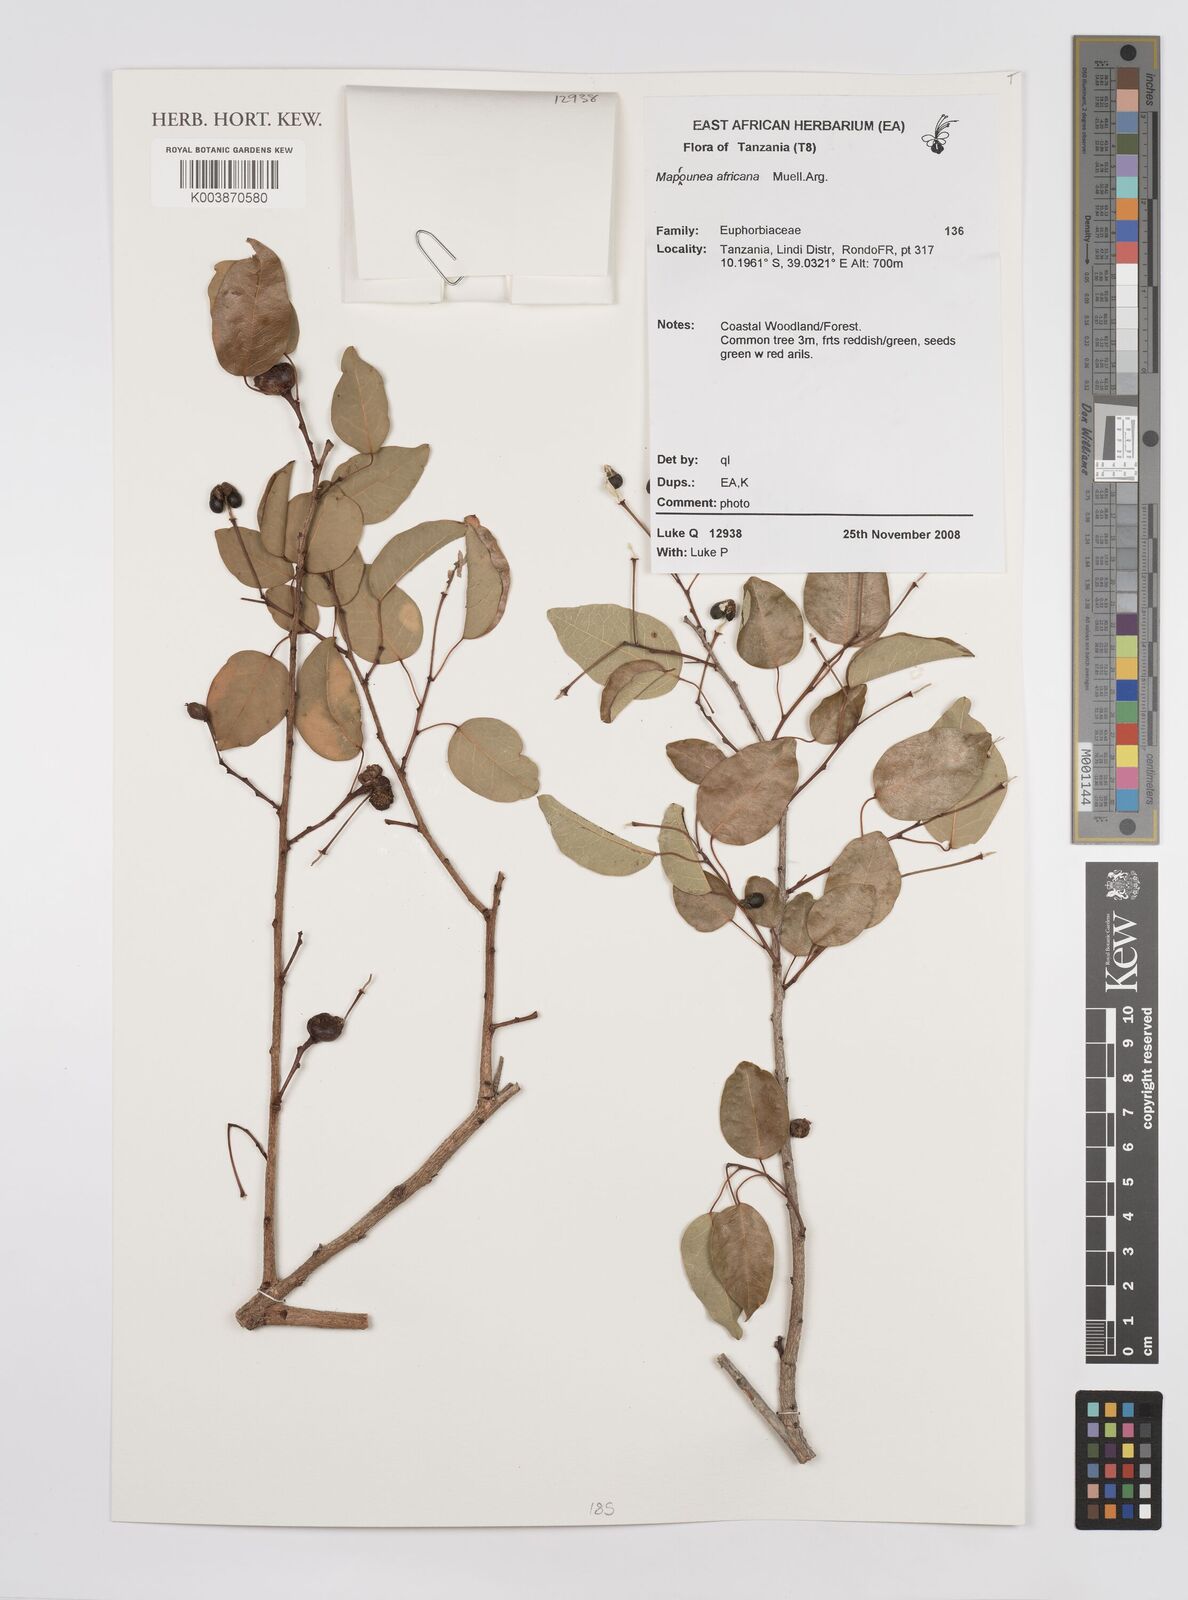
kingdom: Plantae
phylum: Tracheophyta
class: Magnoliopsida
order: Malpighiales
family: Euphorbiaceae
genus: Maprounea
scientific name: Maprounea africana
